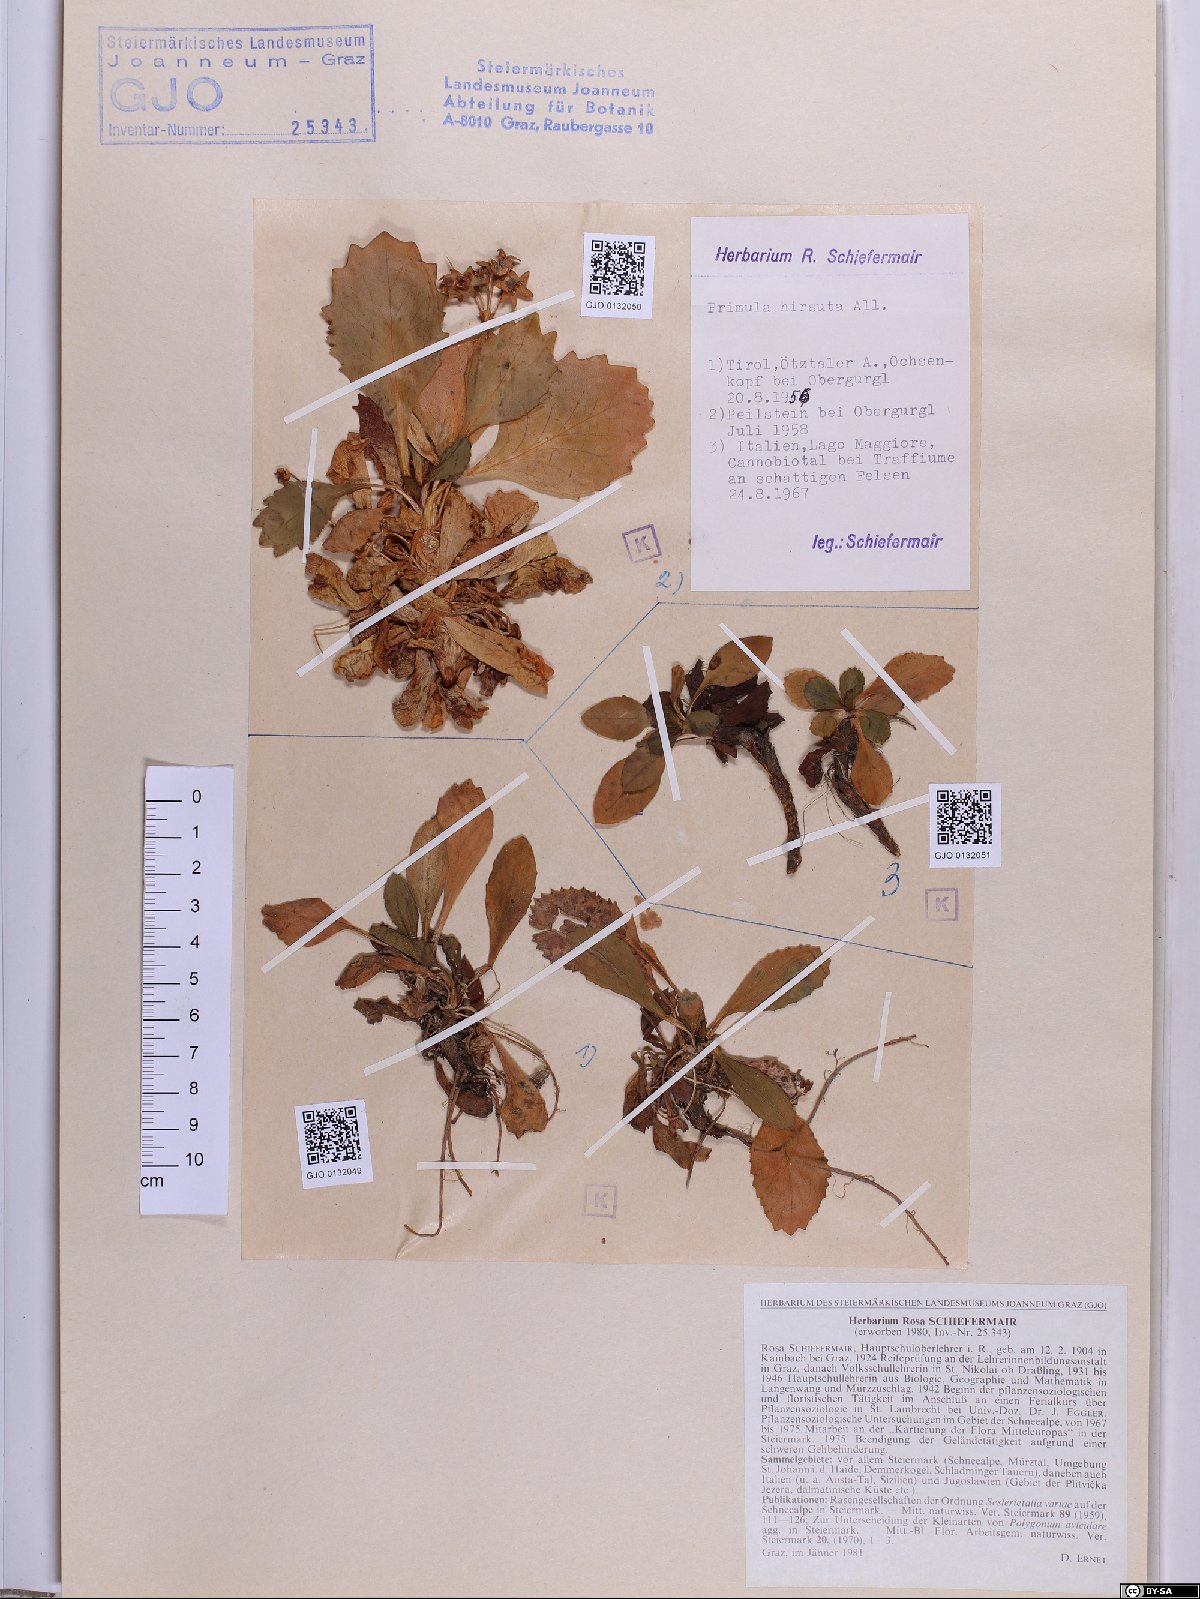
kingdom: Plantae
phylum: Tracheophyta
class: Magnoliopsida
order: Ericales
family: Primulaceae
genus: Primula
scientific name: Primula hirsuta
